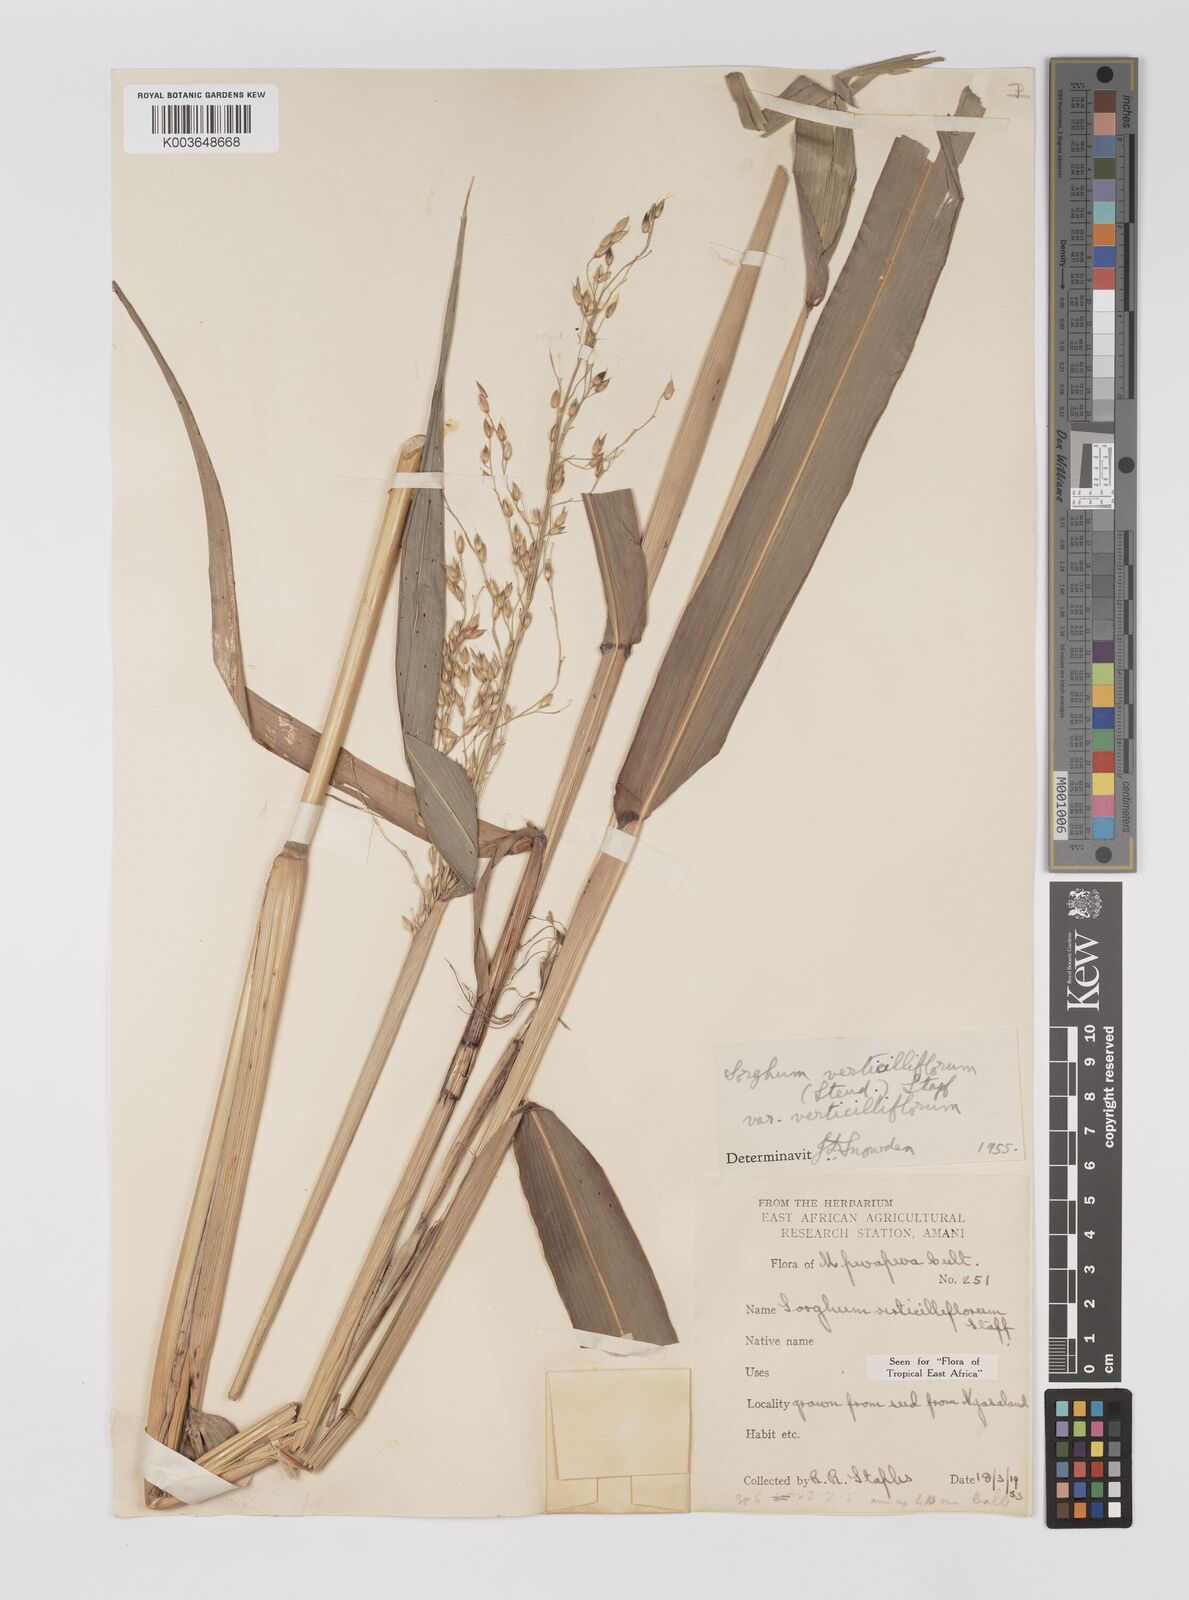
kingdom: Plantae
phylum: Tracheophyta
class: Liliopsida
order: Poales
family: Poaceae
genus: Sorghum
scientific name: Sorghum arundinaceum
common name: Sorghum
